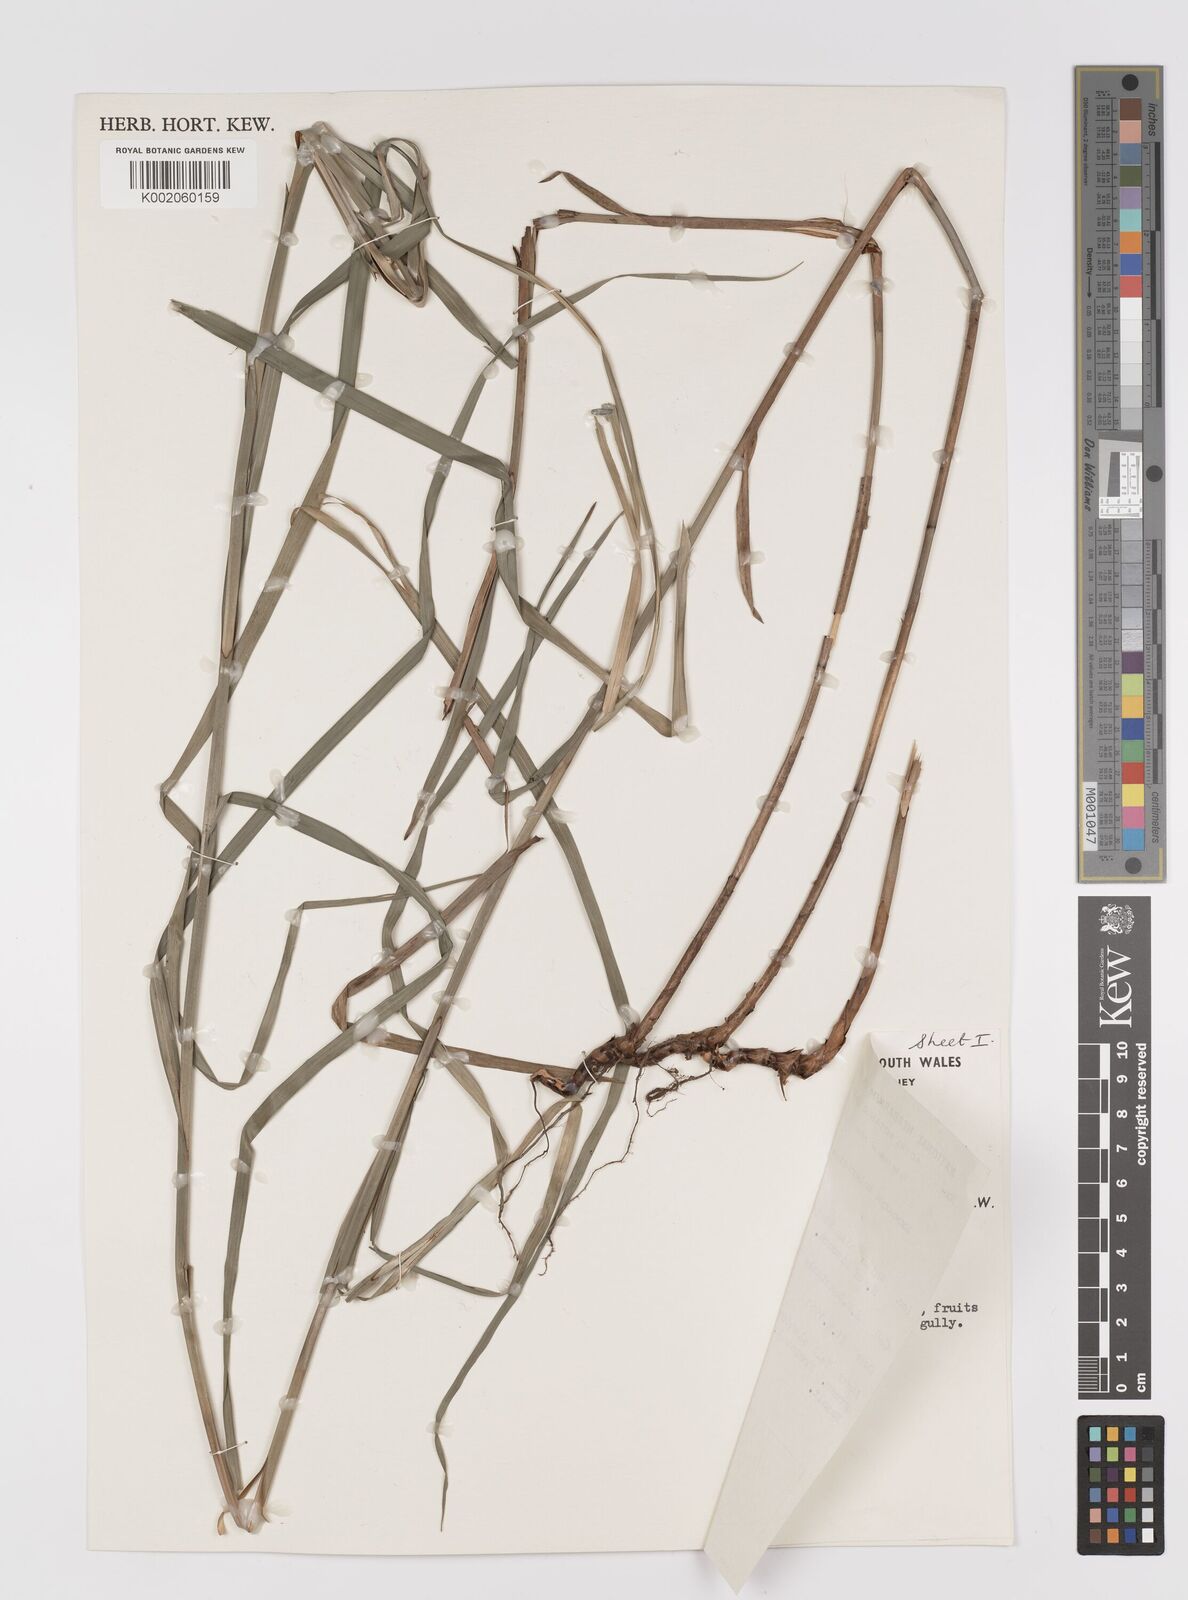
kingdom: Plantae
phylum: Tracheophyta
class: Liliopsida
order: Poales
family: Cyperaceae
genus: Exocarya
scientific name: Exocarya sclerioides
